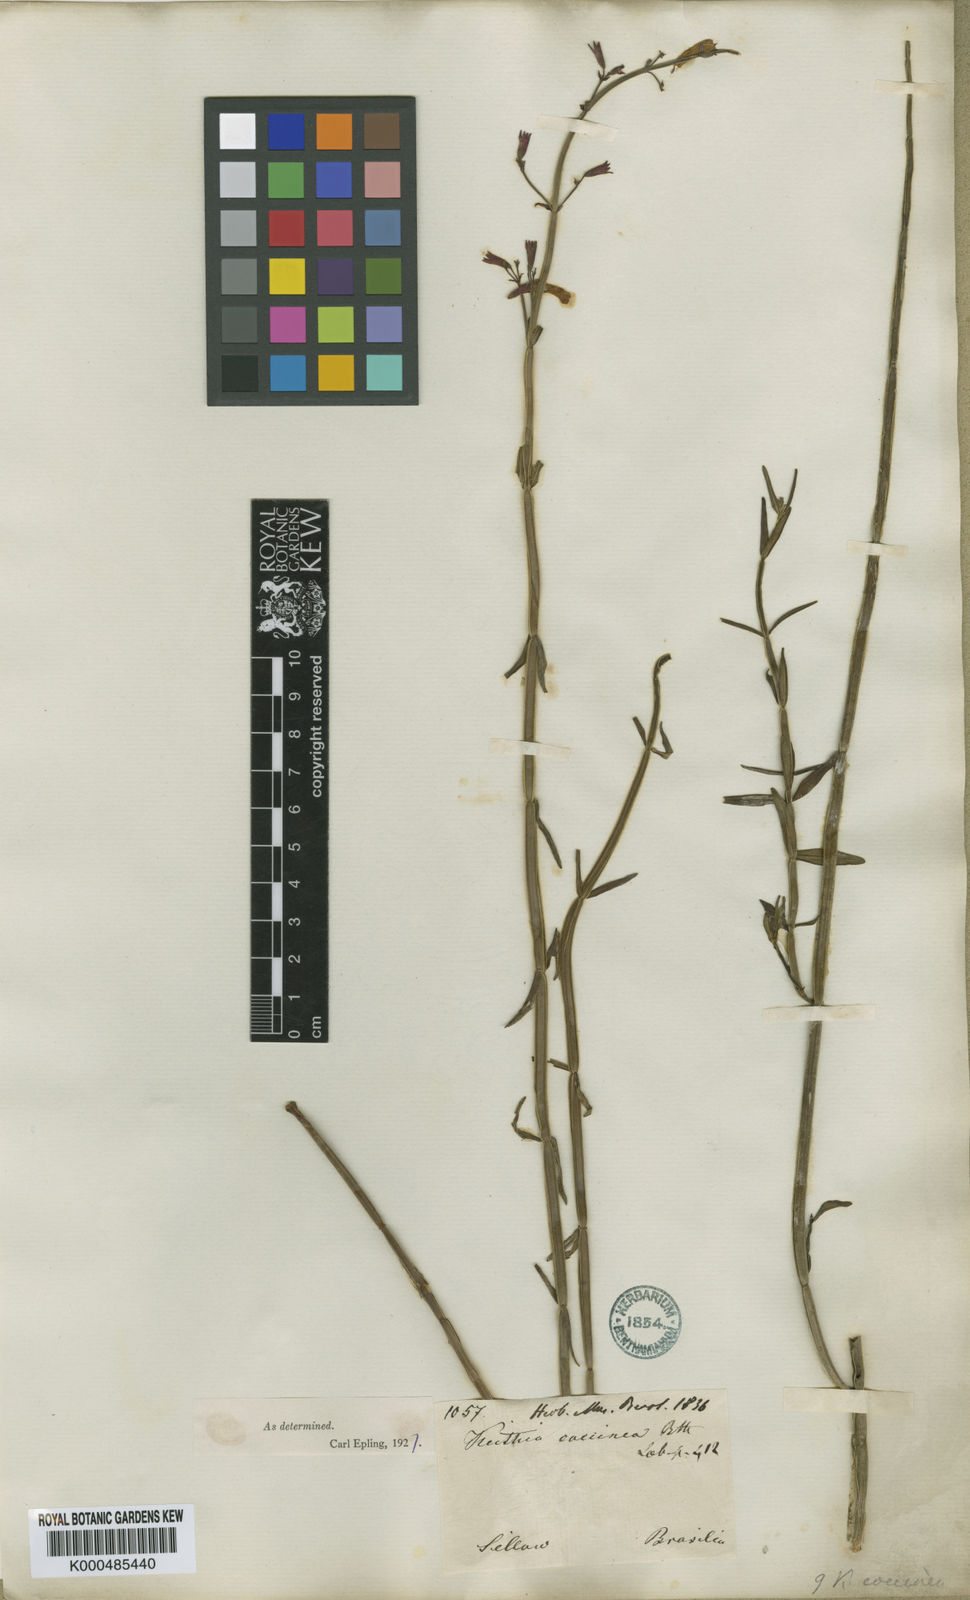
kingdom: Plantae
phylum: Tracheophyta
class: Magnoliopsida
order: Lamiales
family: Lamiaceae
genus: Rhabdocaulon
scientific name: Rhabdocaulon coccineum
